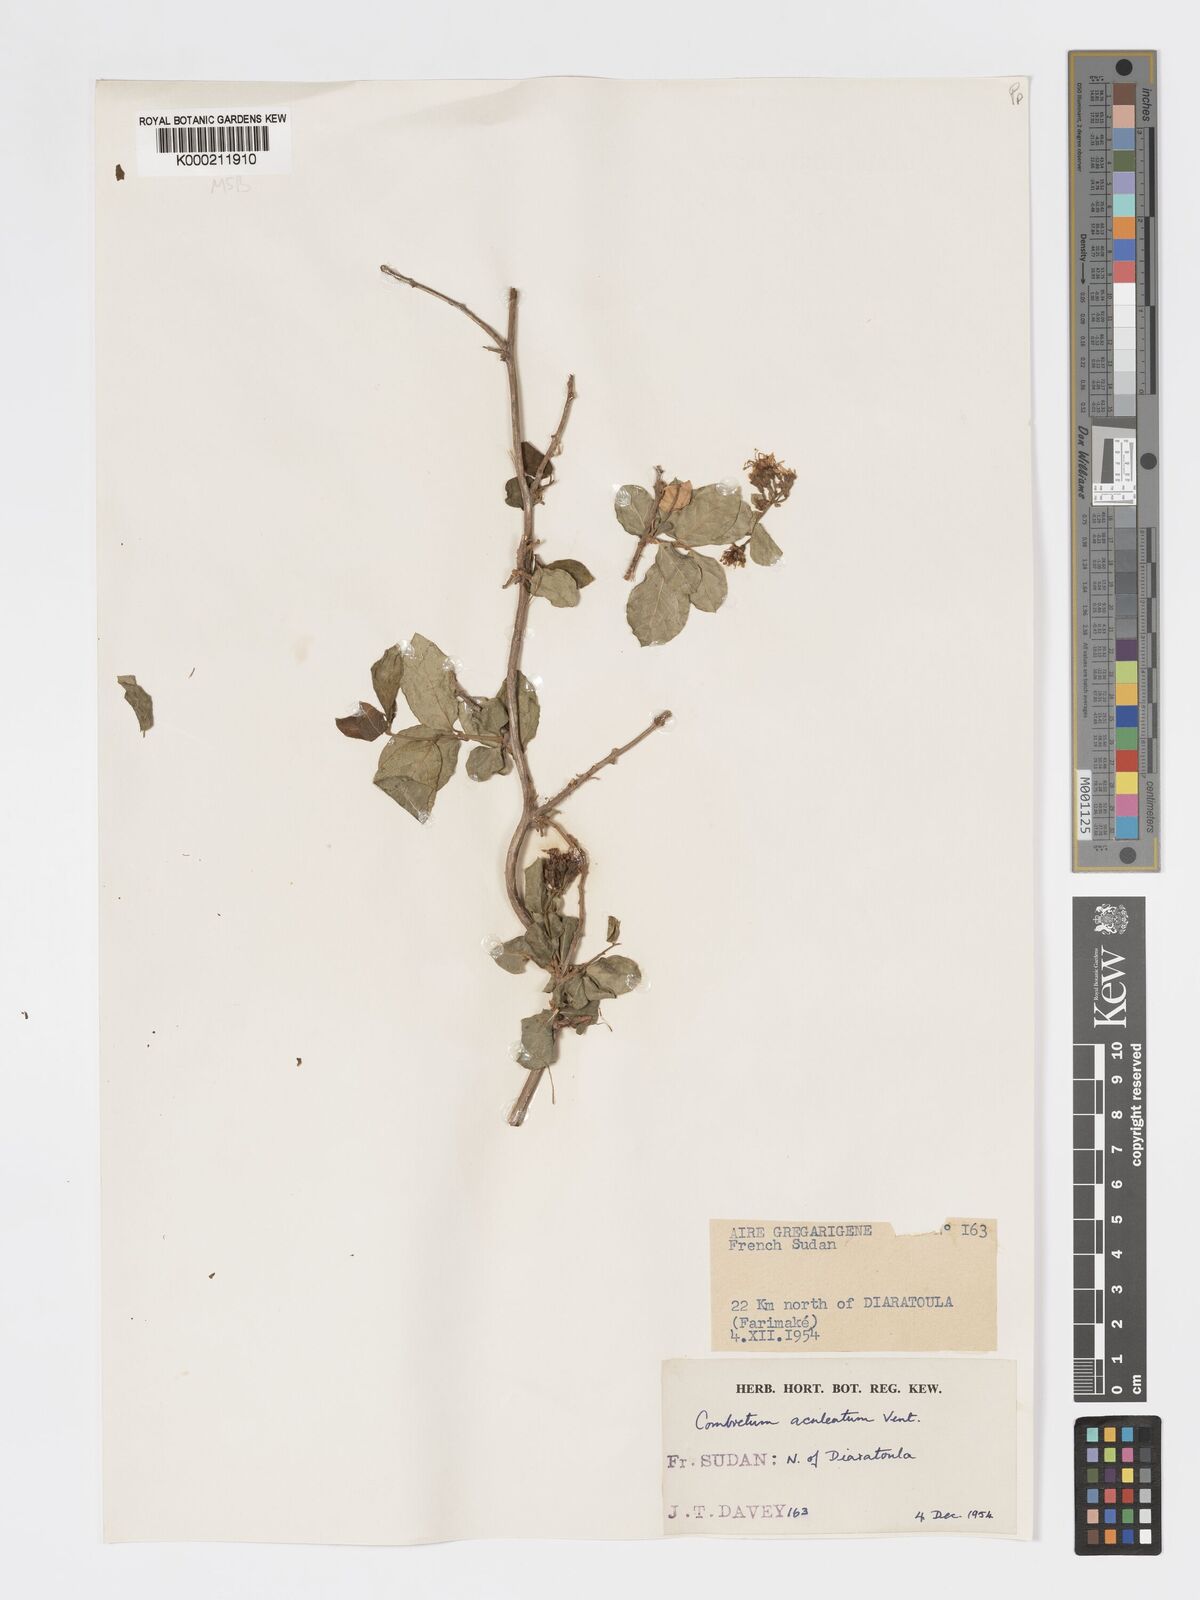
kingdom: Plantae
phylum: Tracheophyta
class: Magnoliopsida
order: Myrtales
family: Combretaceae
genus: Combretum
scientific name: Combretum aculeatum
